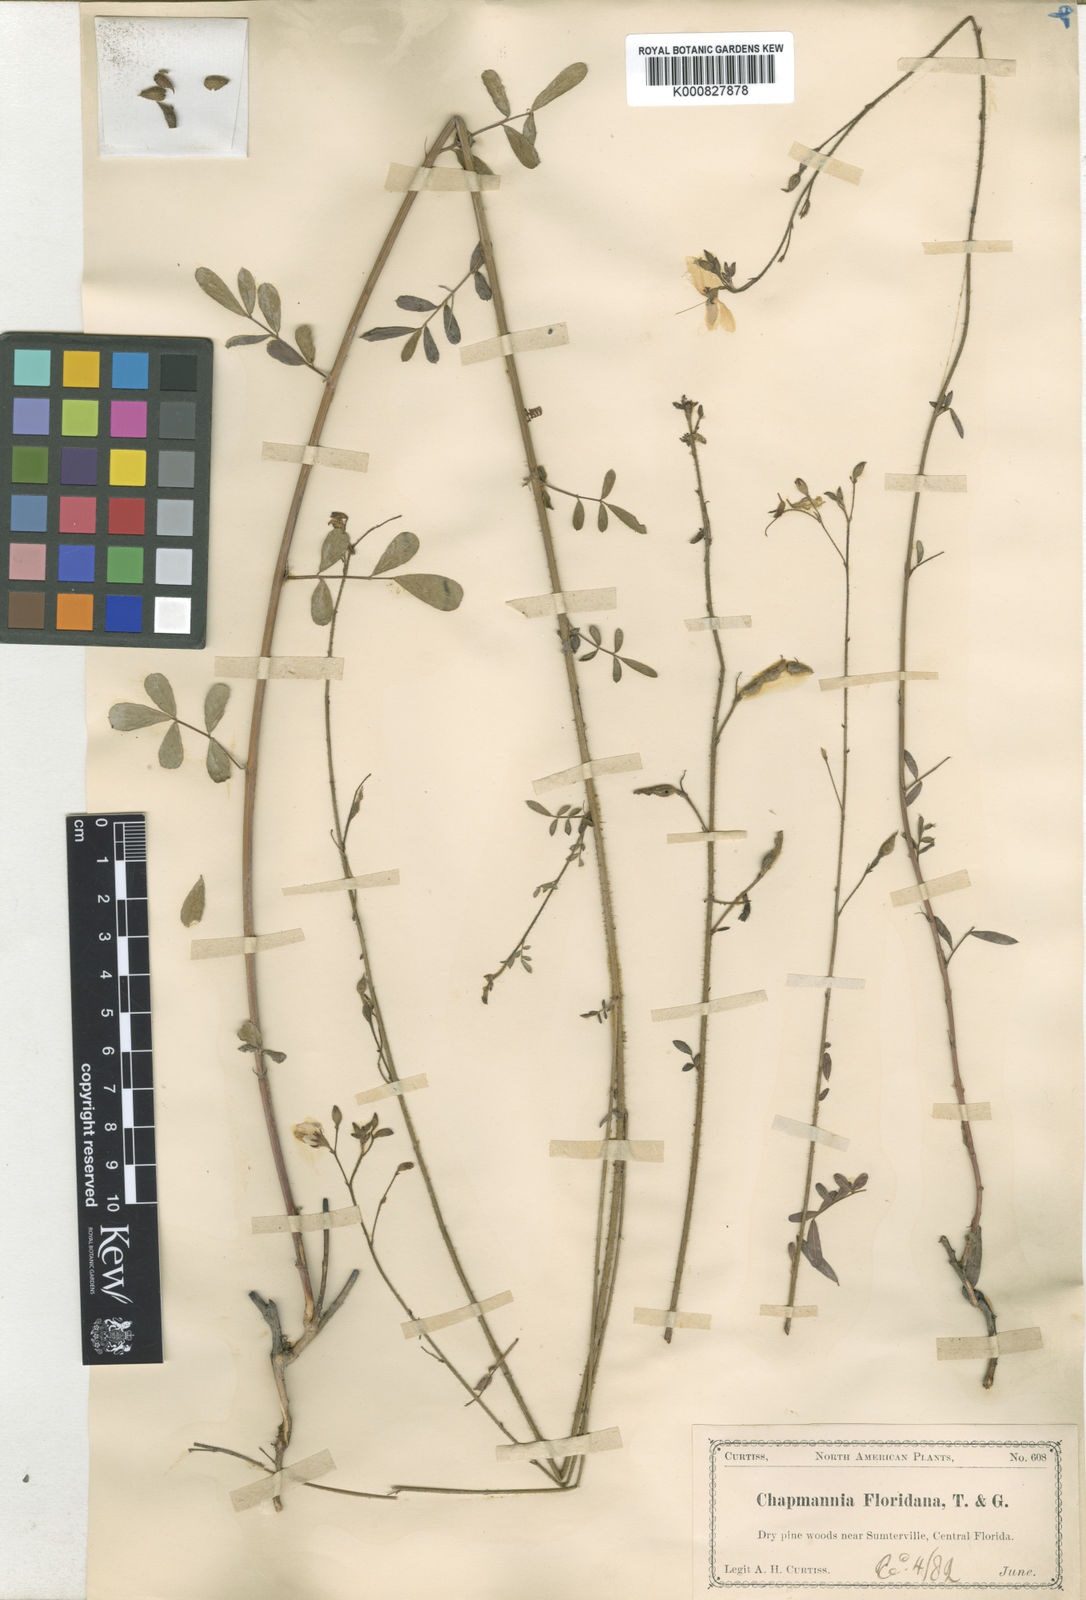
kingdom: Plantae
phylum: Tracheophyta
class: Magnoliopsida
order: Fabales
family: Fabaceae
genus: Chapmannia
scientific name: Chapmannia floridana
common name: Alicia
